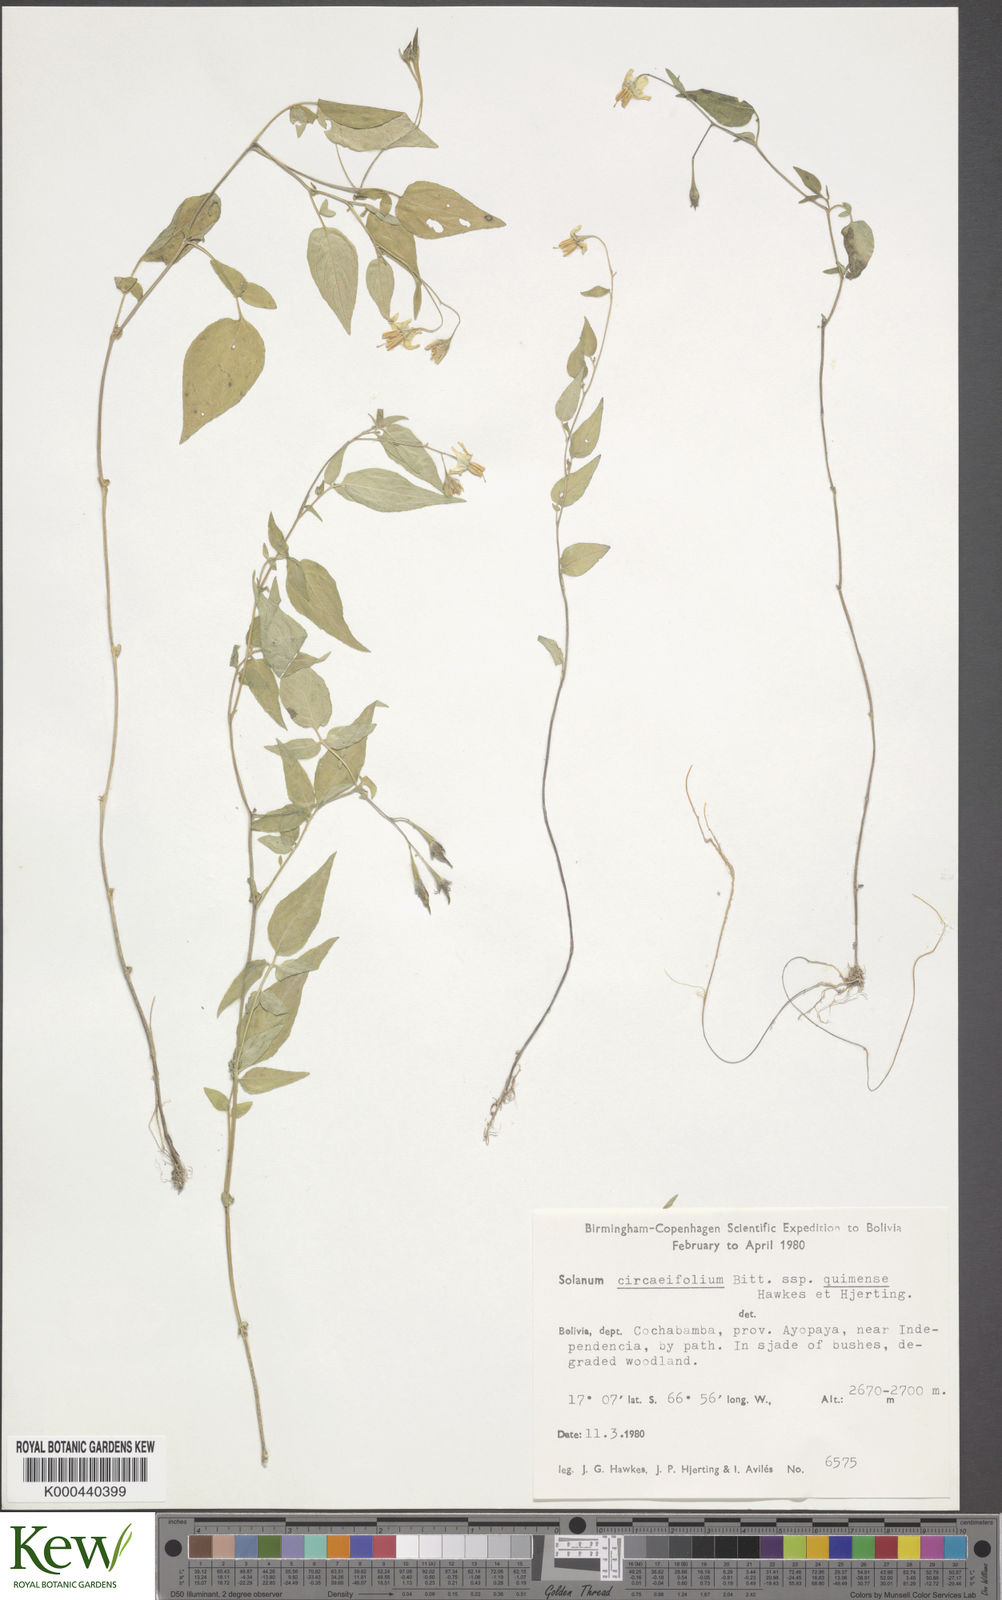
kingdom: Plantae
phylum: Tracheophyta
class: Magnoliopsida
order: Solanales
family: Solanaceae
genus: Solanum
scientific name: Solanum stipuloideum
